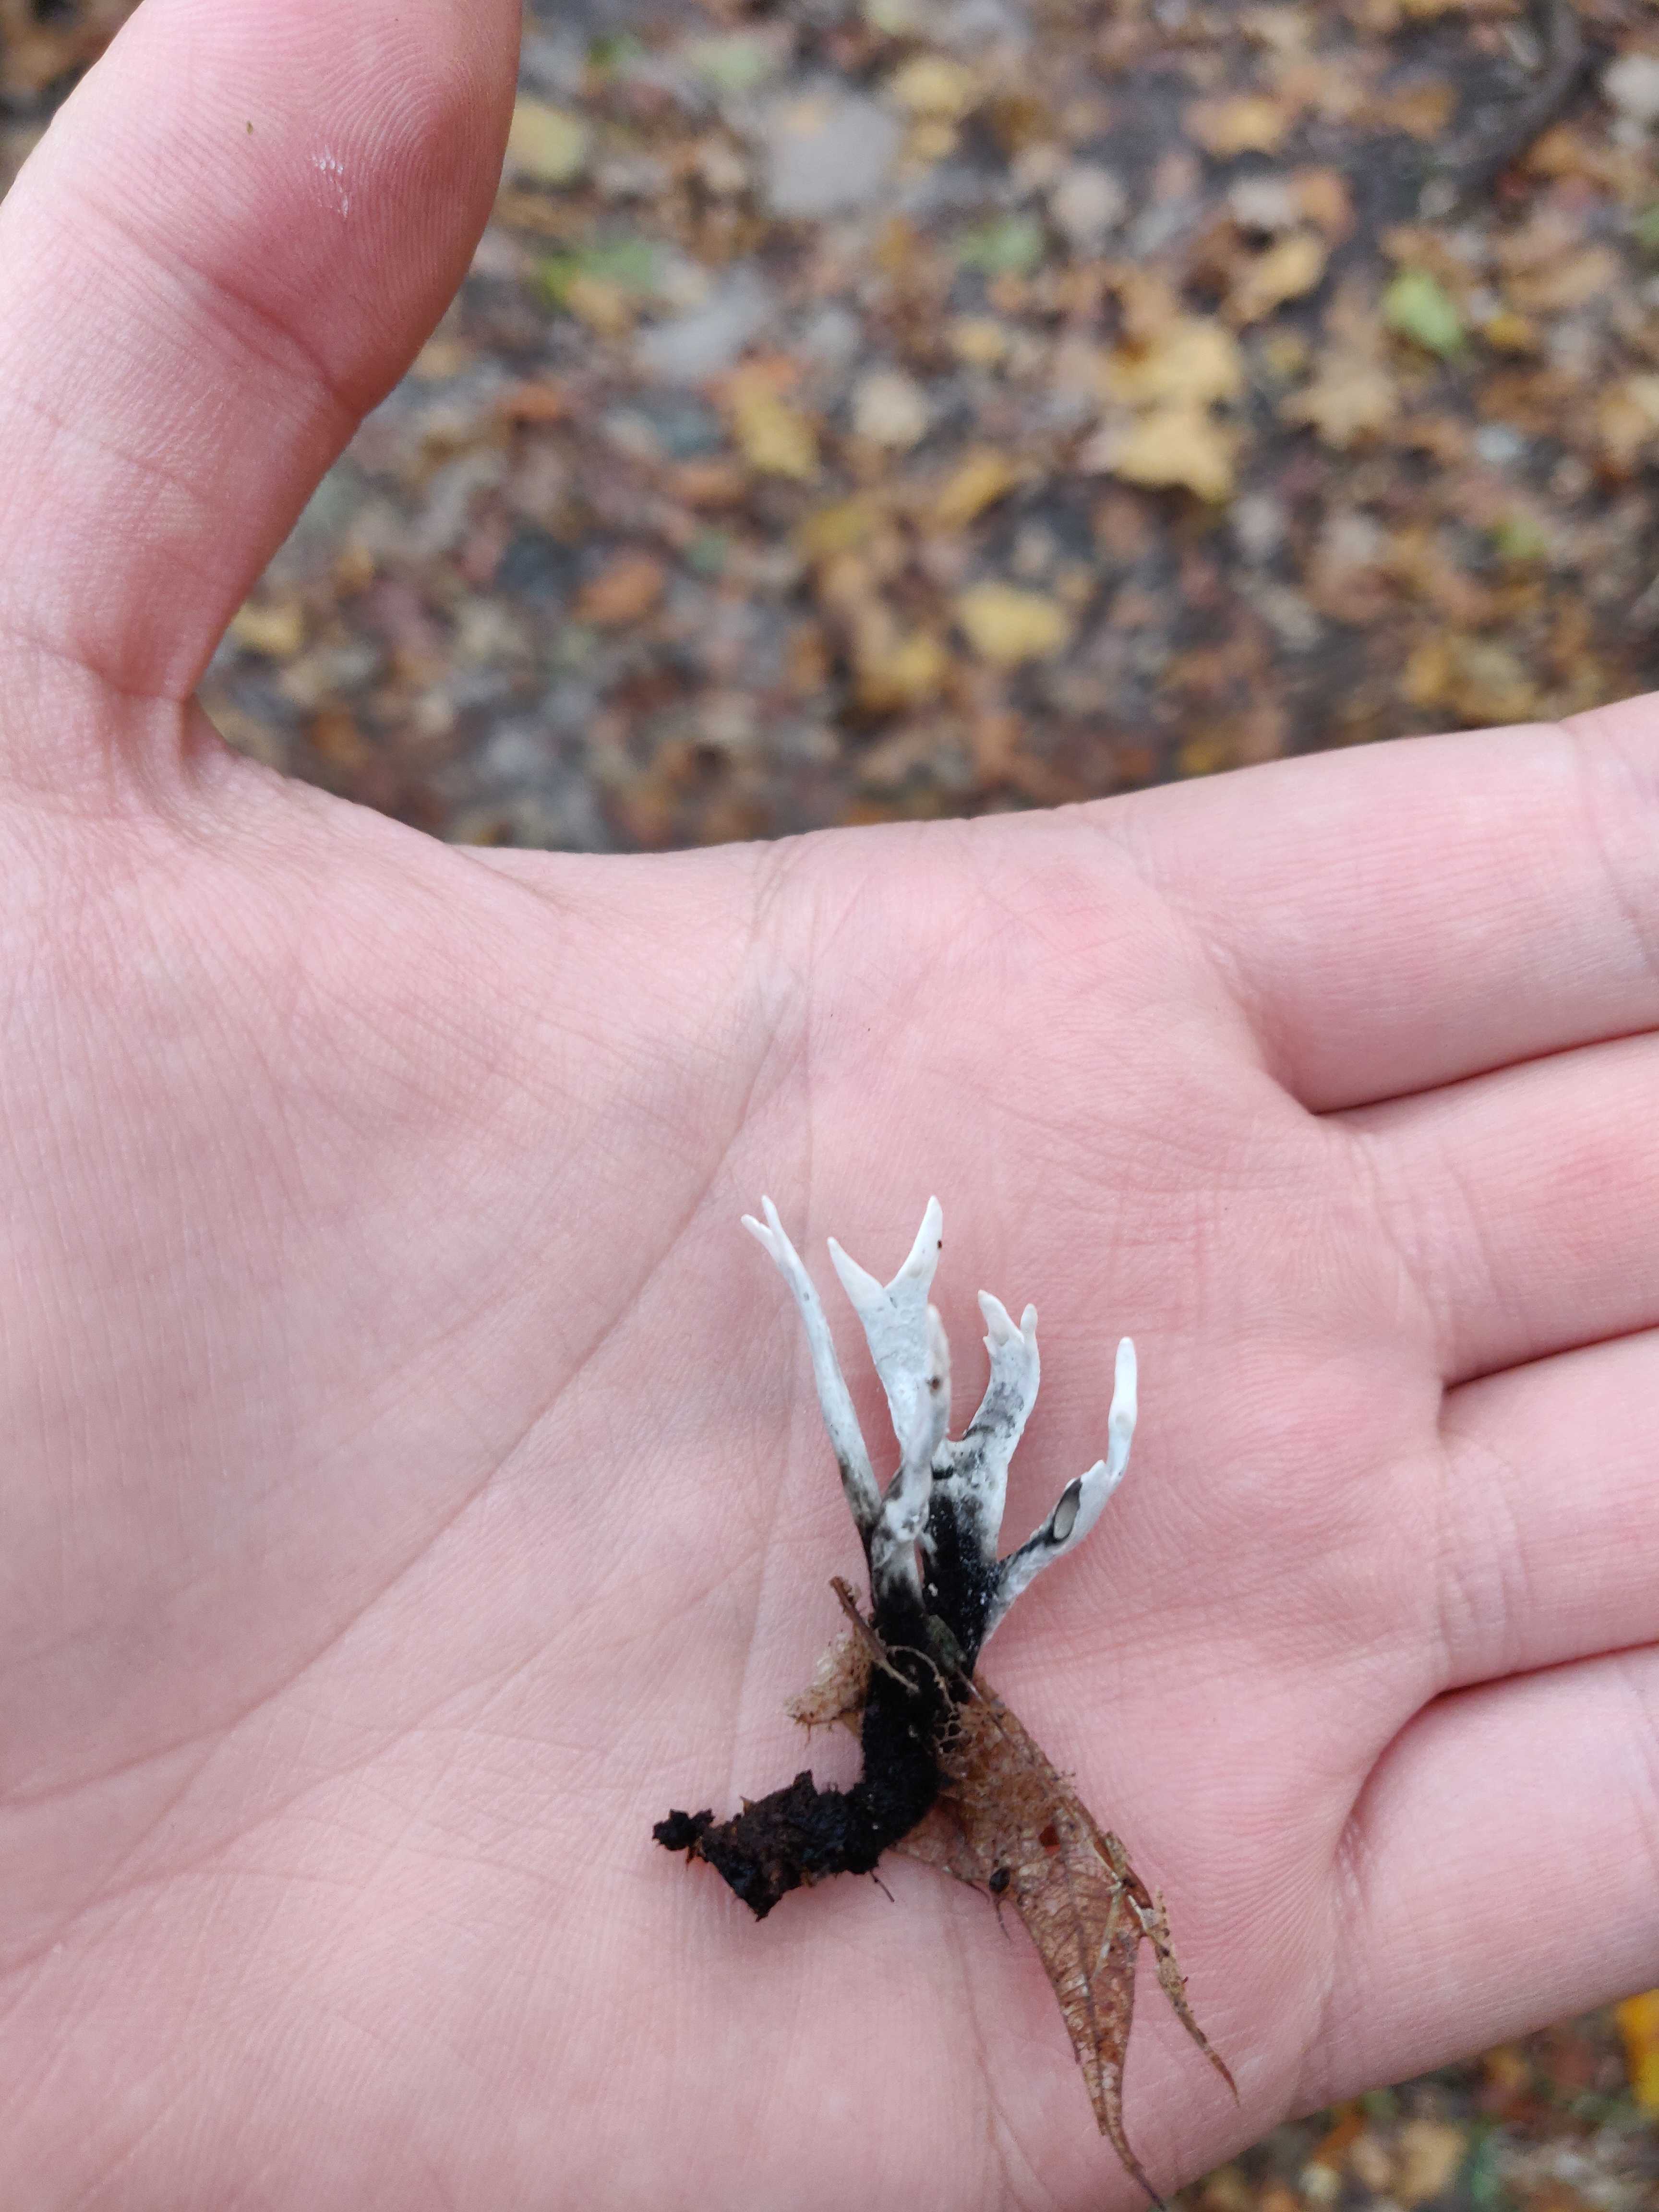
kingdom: Fungi
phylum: Ascomycota
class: Sordariomycetes
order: Xylariales
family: Xylariaceae
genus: Xylaria
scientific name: Xylaria hypoxylon
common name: grenet stødsvamp
